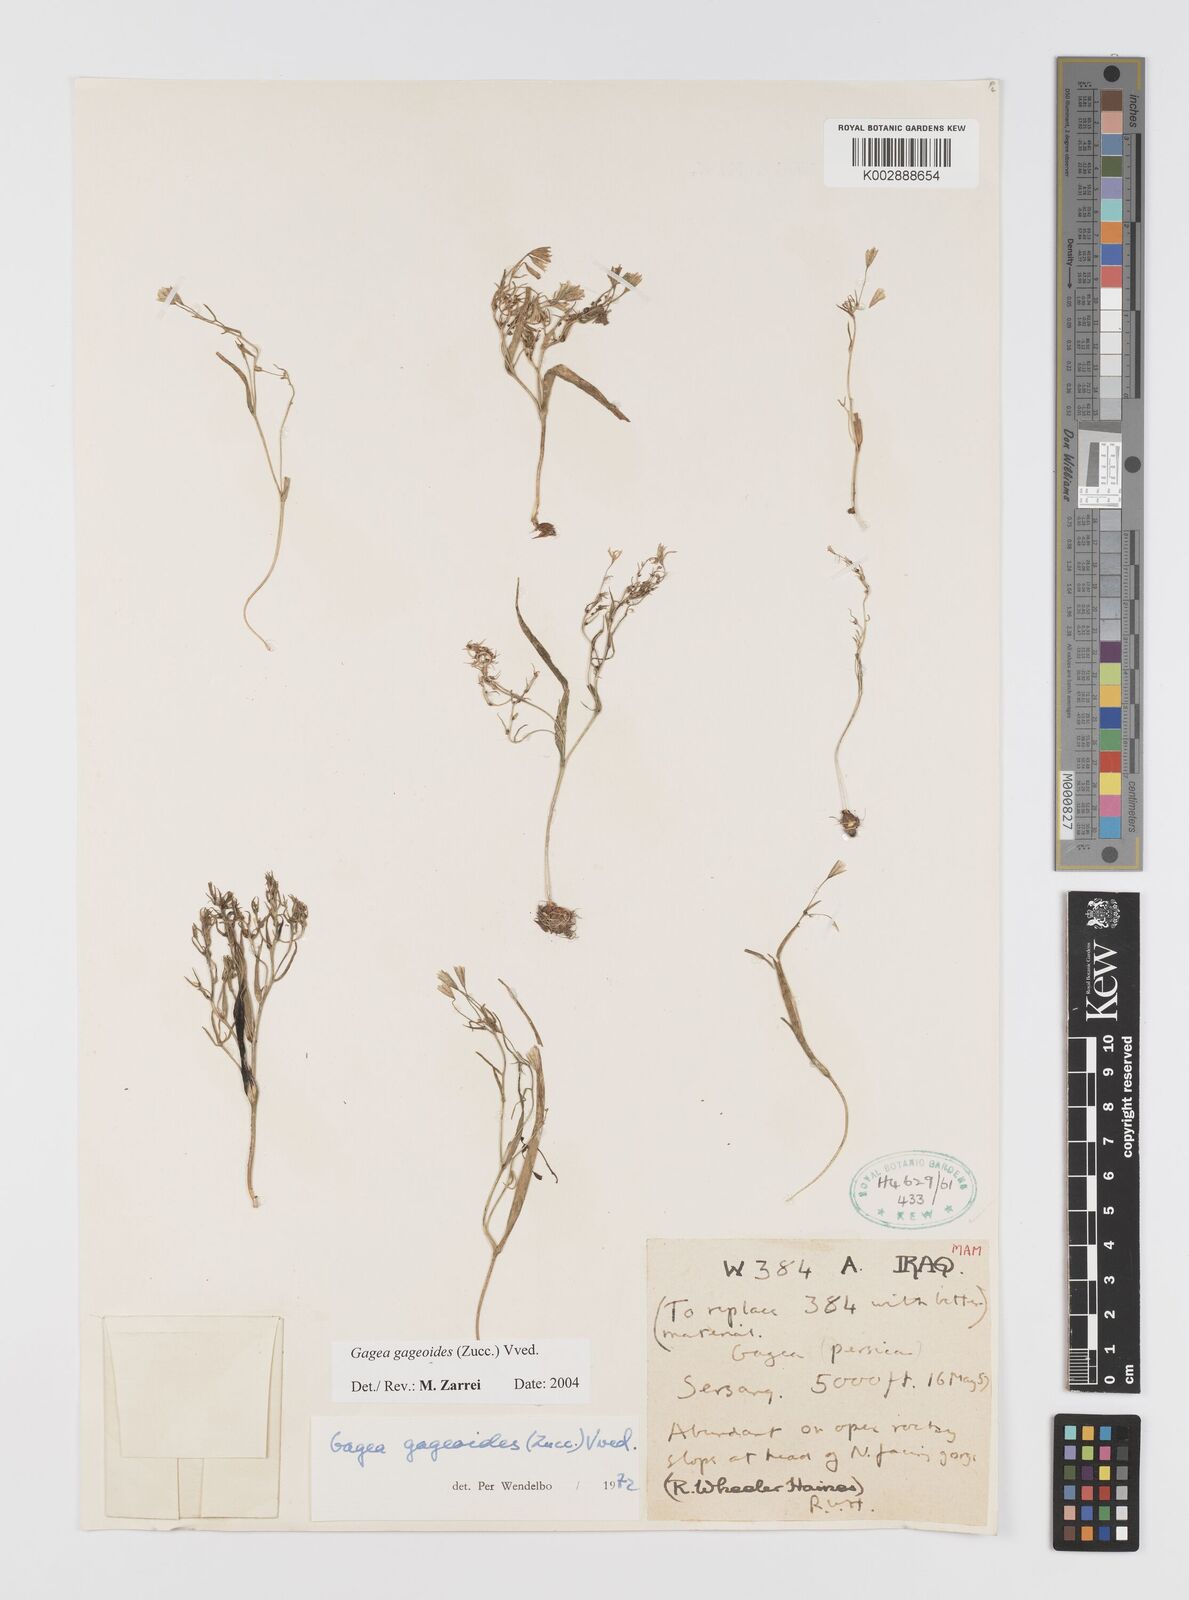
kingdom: Plantae
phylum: Tracheophyta
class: Liliopsida
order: Liliales
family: Liliaceae
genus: Gagea
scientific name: Gagea gageoides
